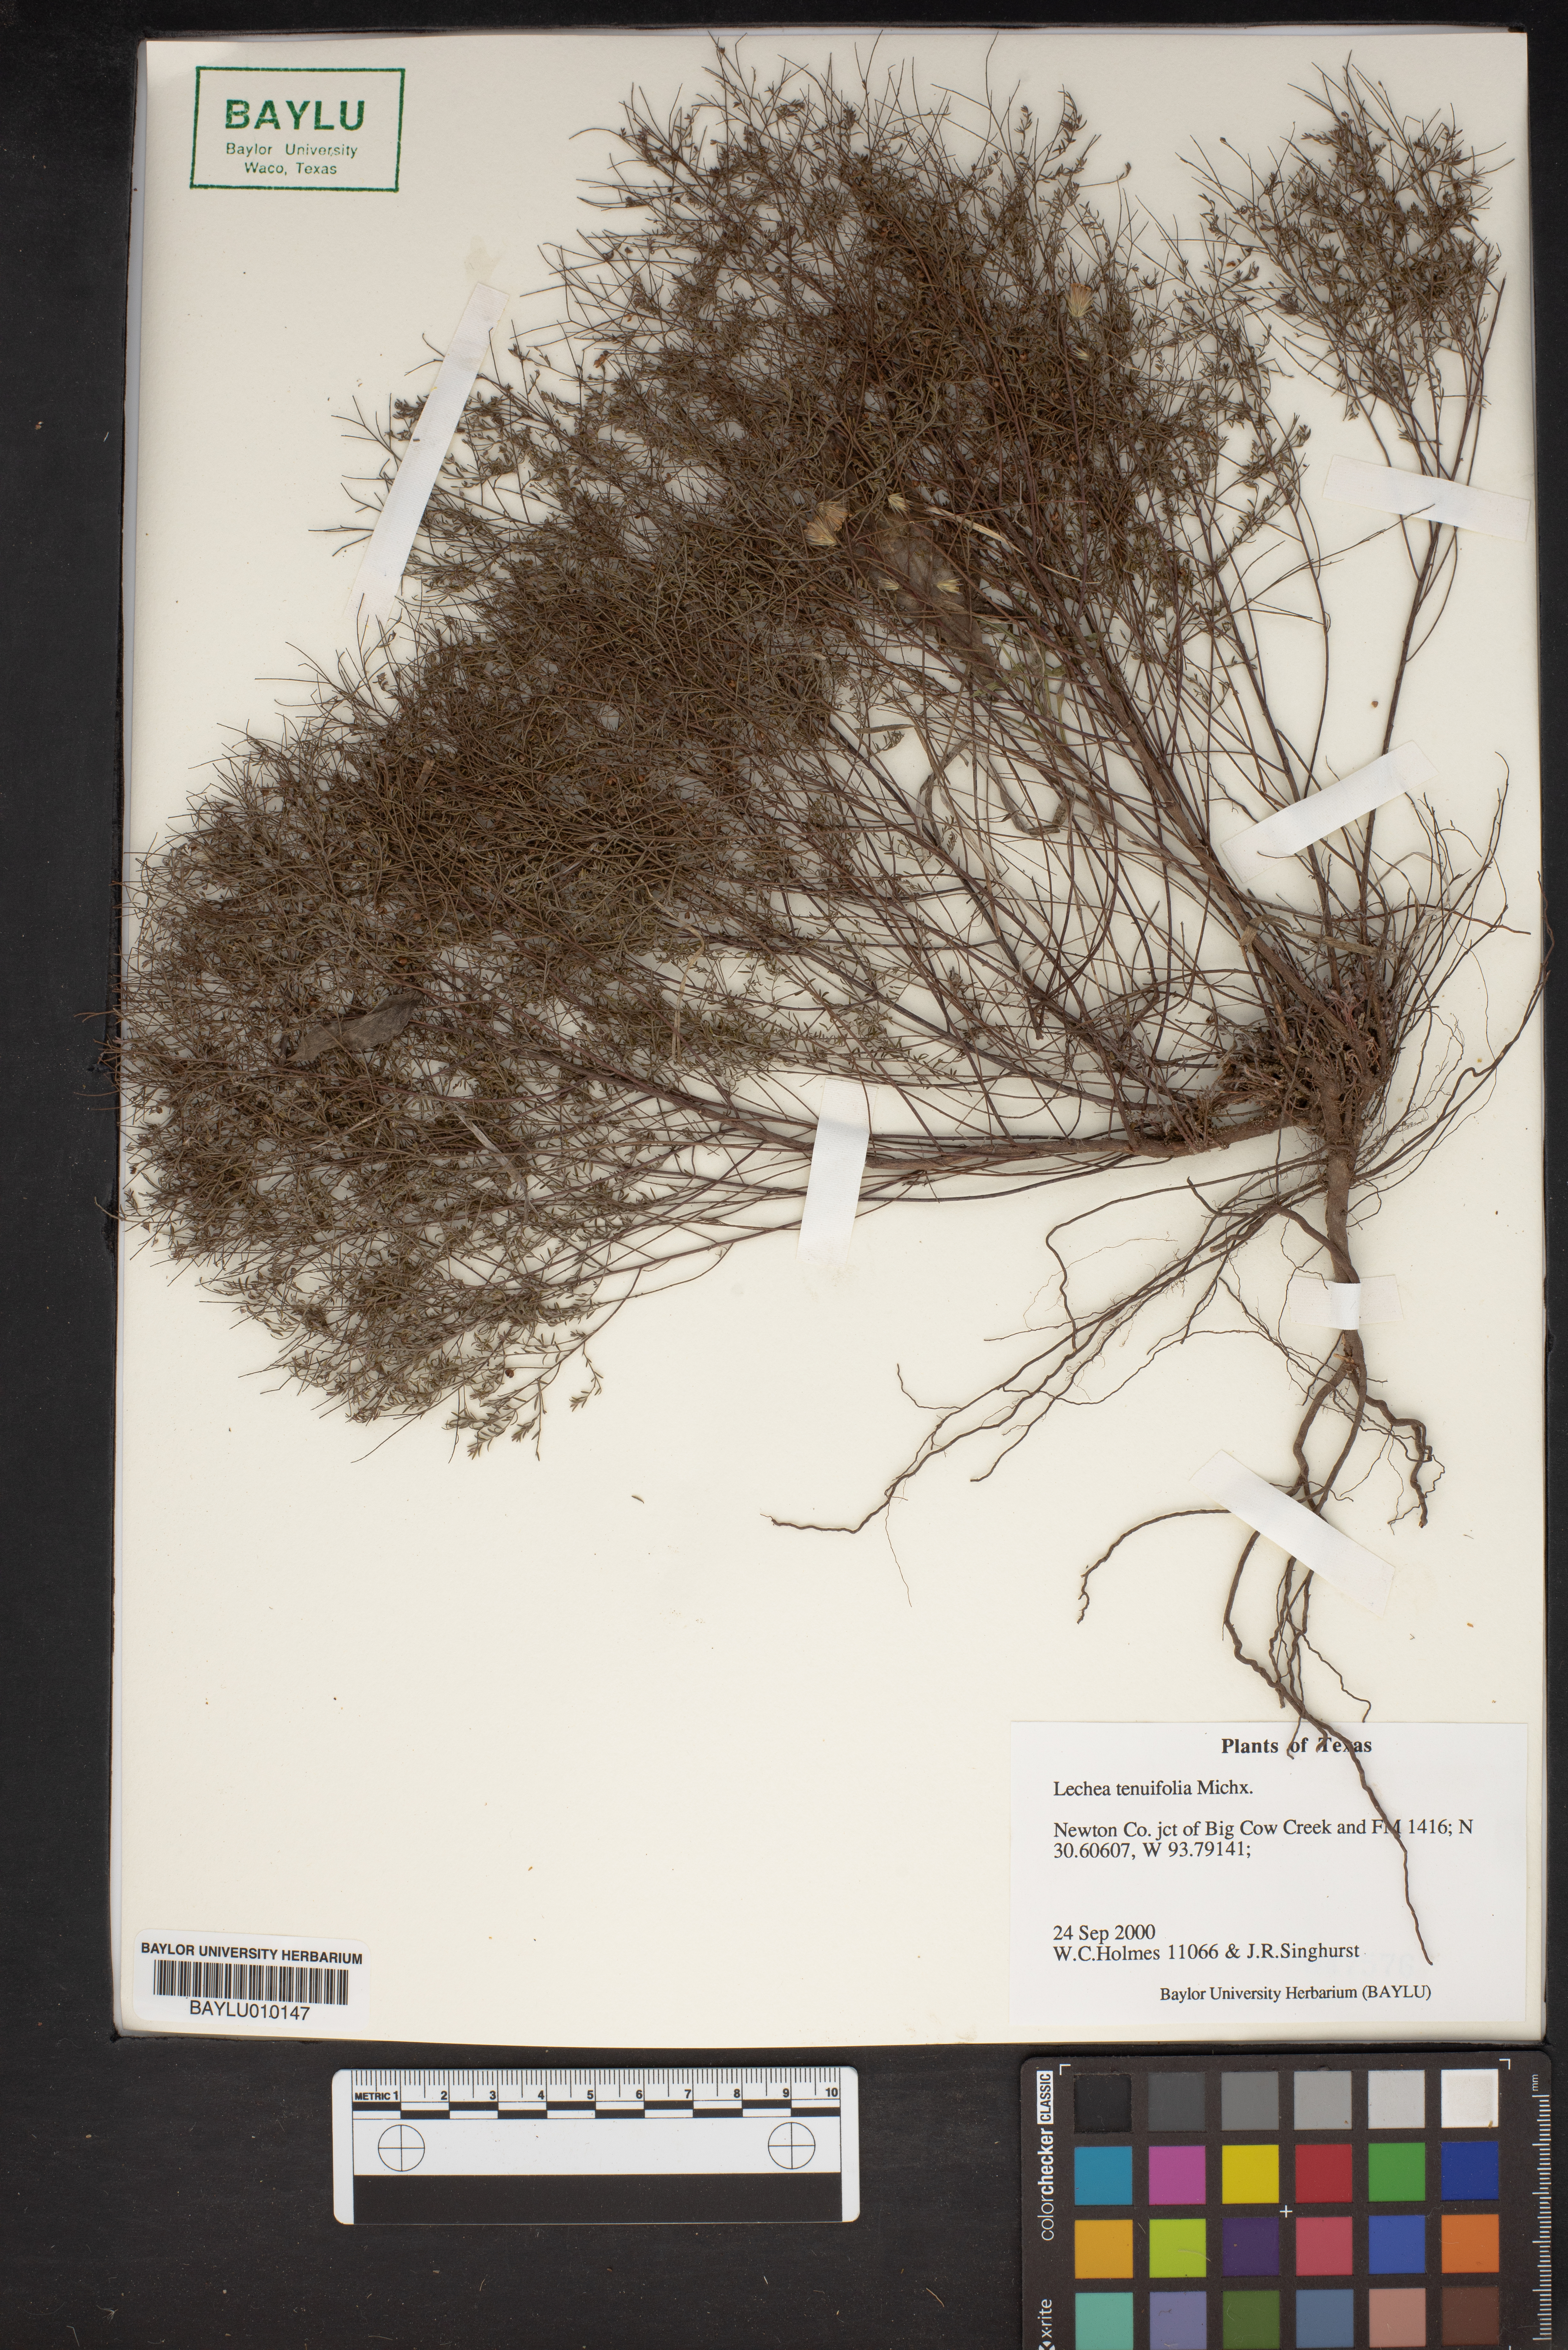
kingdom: Plantae
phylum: Tracheophyta
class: Magnoliopsida
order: Malvales
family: Cistaceae
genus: Lechea
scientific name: Lechea tenuifolia
